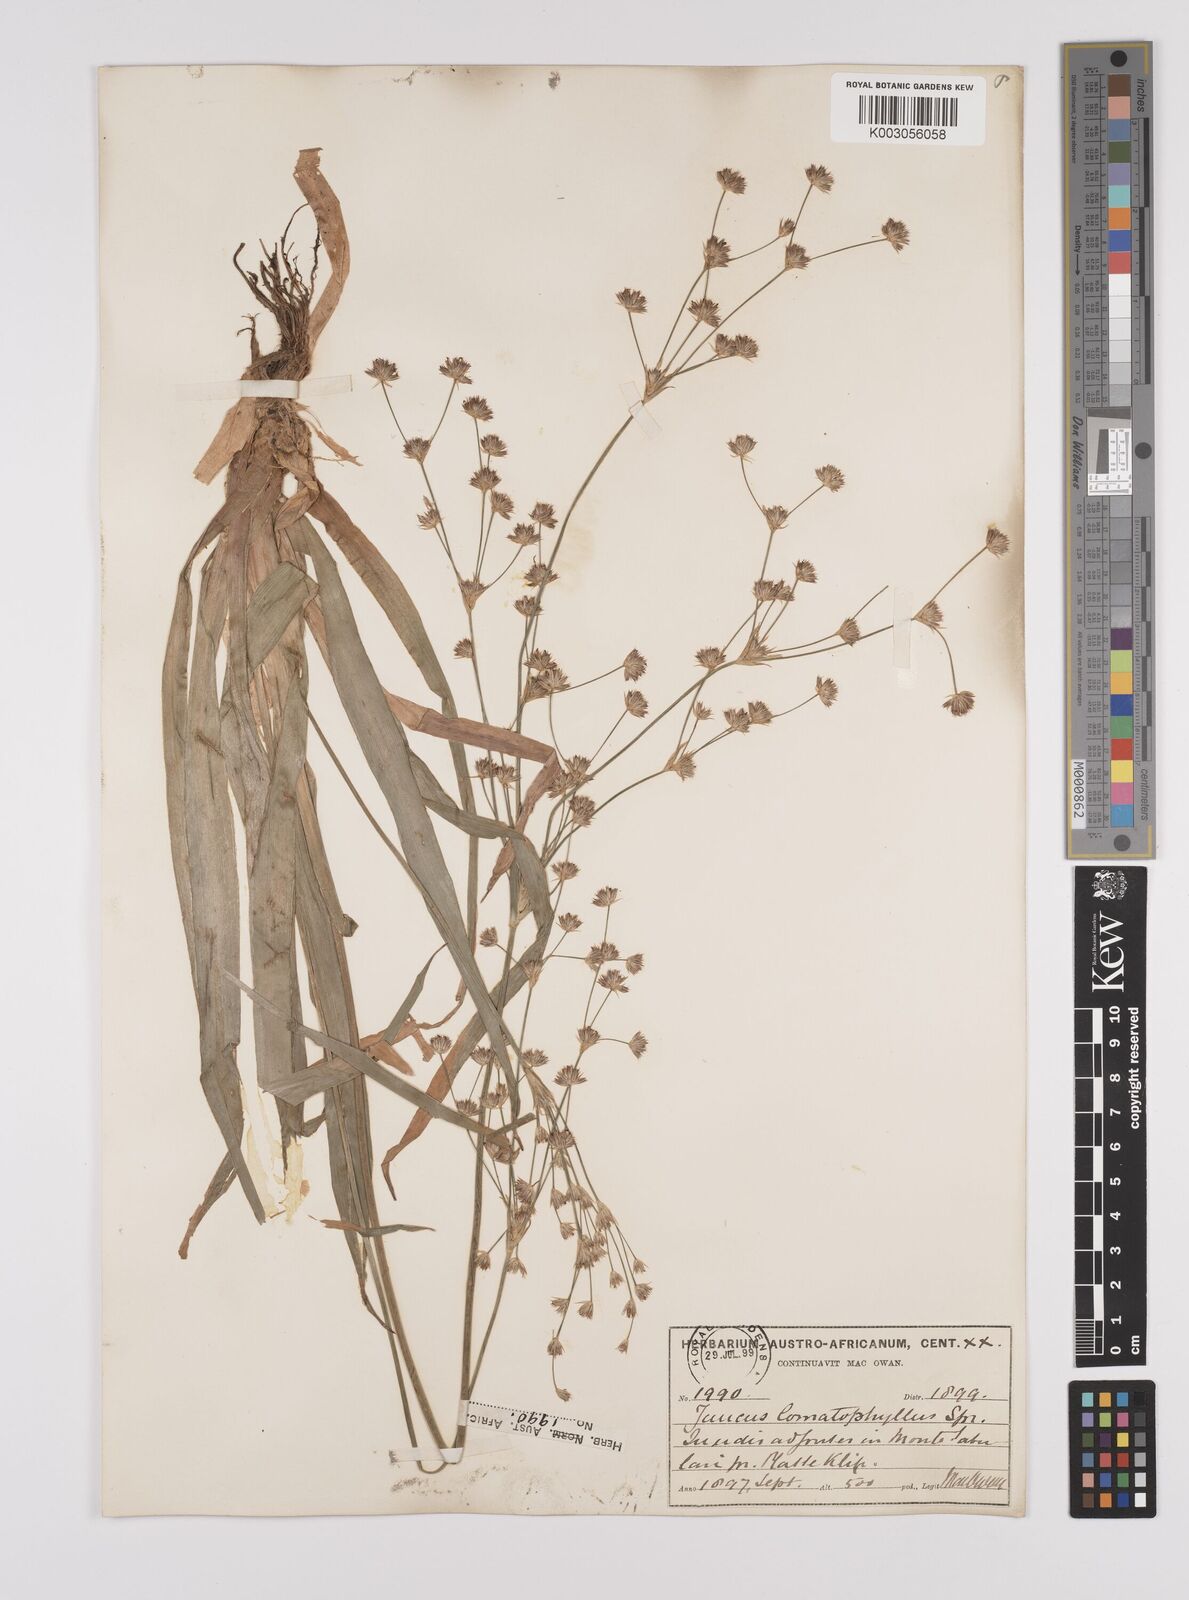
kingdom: Plantae
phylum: Tracheophyta
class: Liliopsida
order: Poales
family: Juncaceae
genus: Juncus
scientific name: Juncus lomatophyllus
